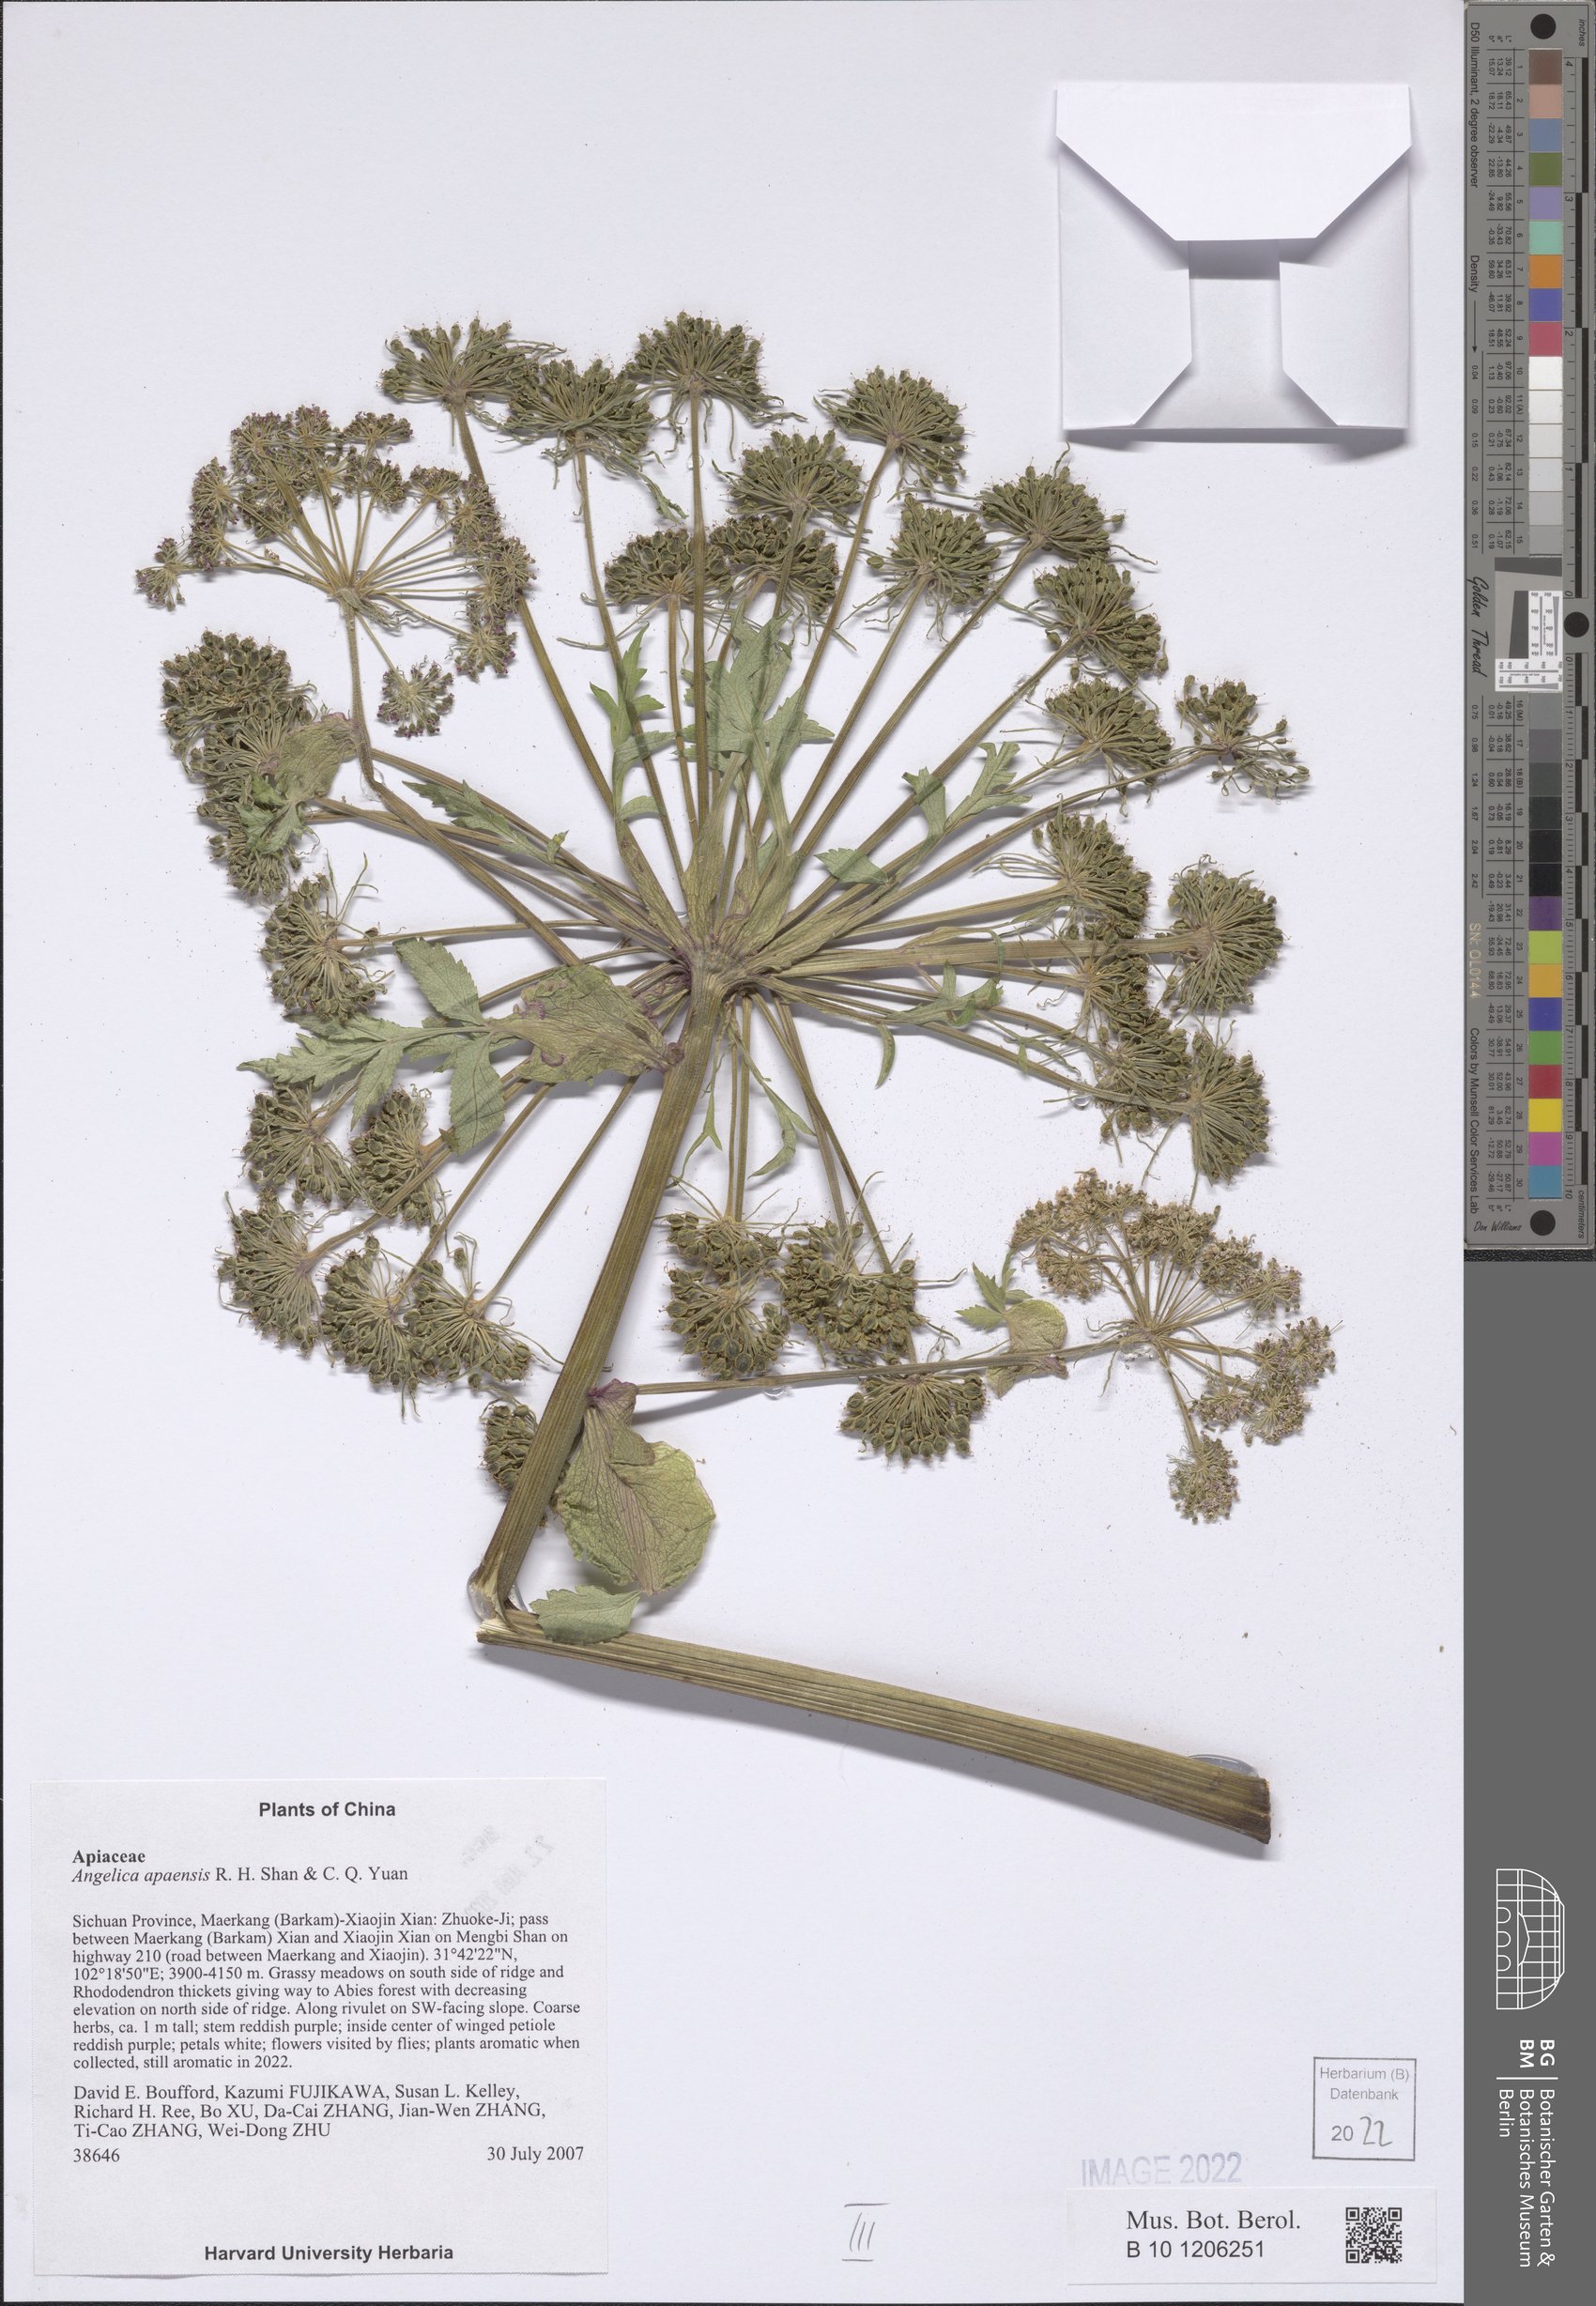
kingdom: Plantae
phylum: Tracheophyta
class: Magnoliopsida
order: Apiales
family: Apiaceae
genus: Angelica
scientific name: Angelica apaensis
